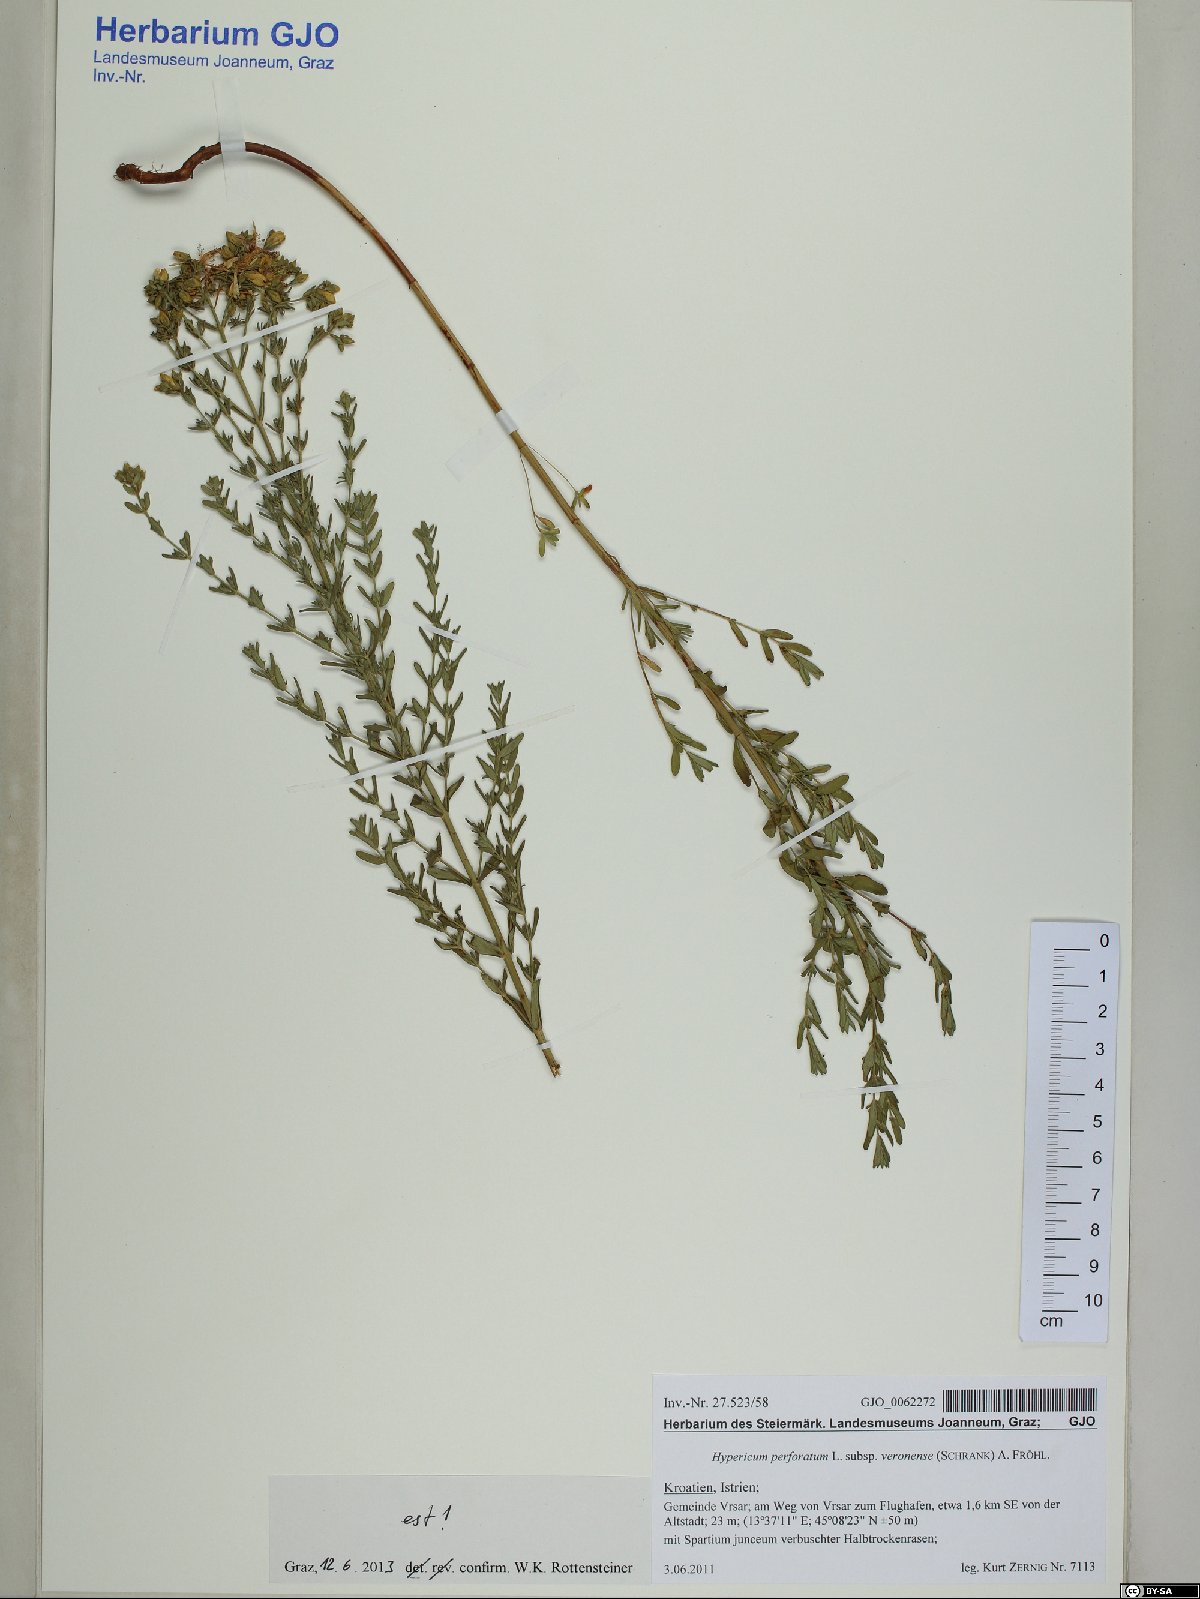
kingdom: Plantae
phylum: Tracheophyta
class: Magnoliopsida
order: Malpighiales
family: Hypericaceae
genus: Hypericum
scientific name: Hypericum veronense
